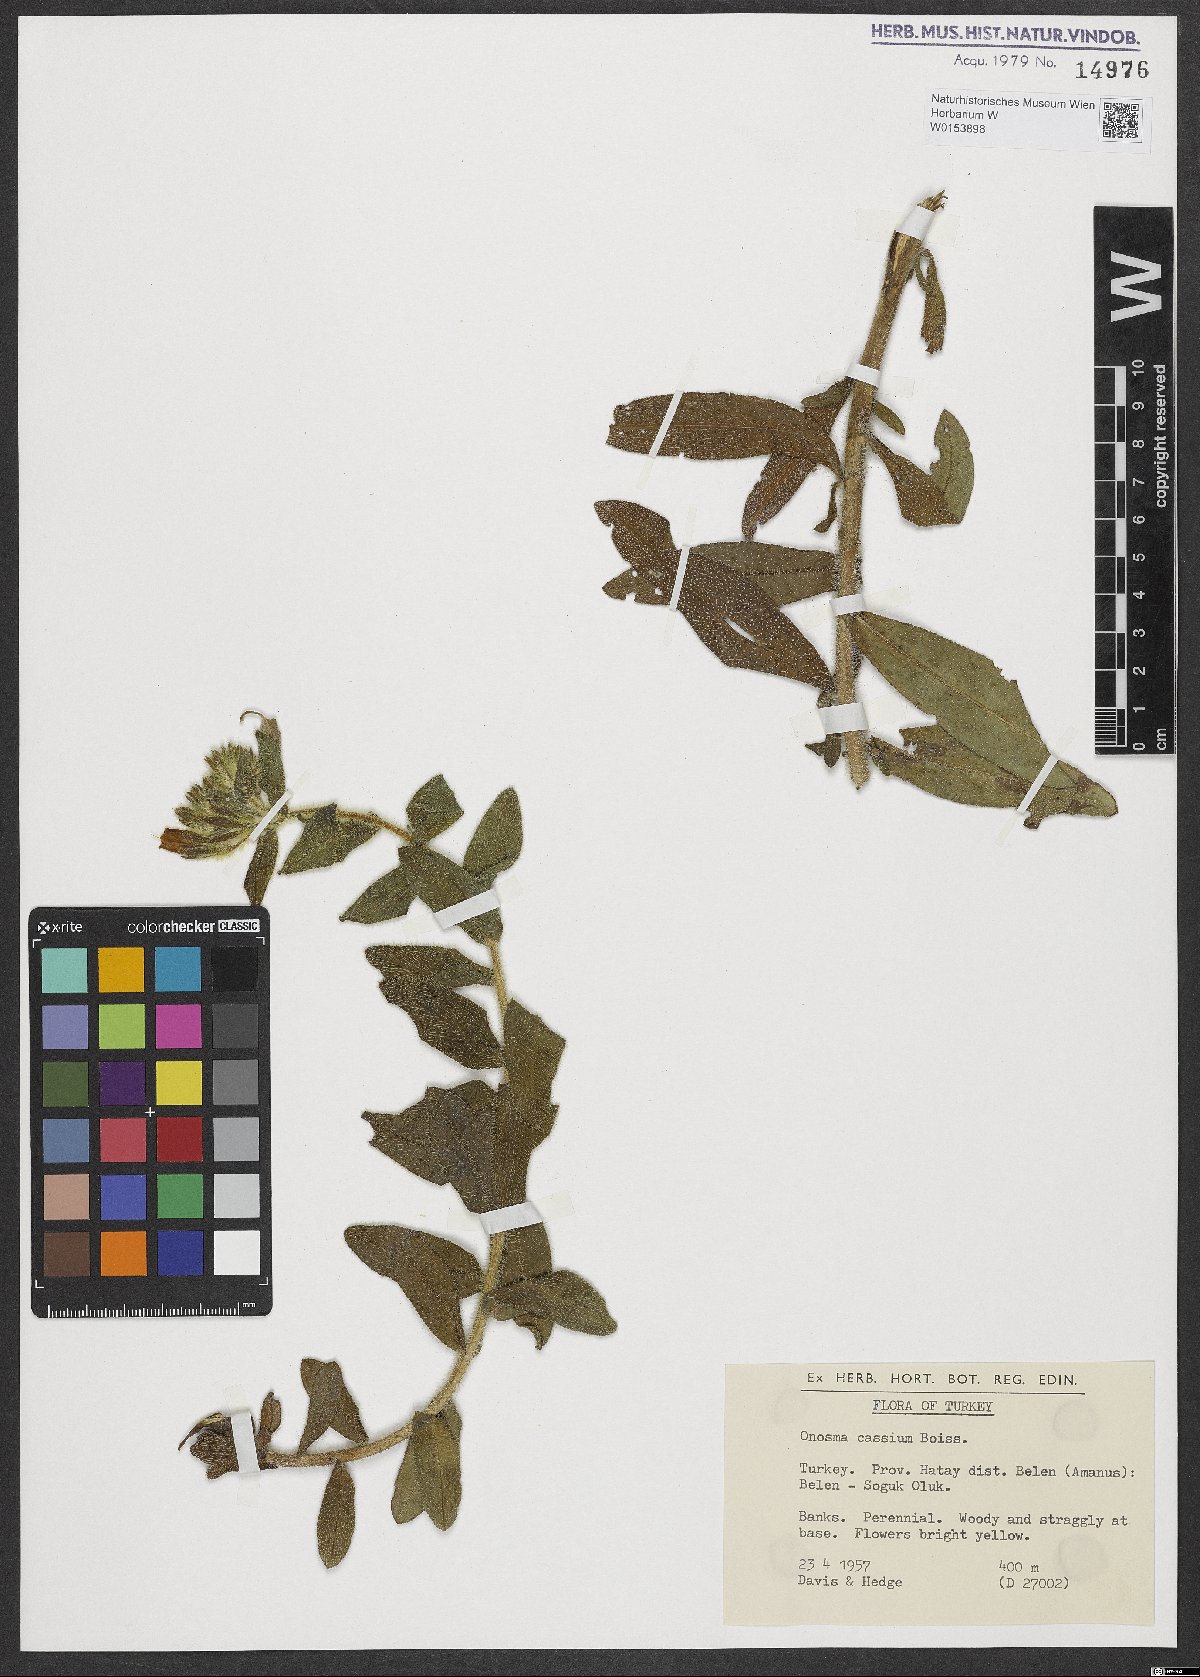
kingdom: Plantae
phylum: Tracheophyta
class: Magnoliopsida
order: Boraginales
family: Boraginaceae
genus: Onosma
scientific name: Onosma cassia
